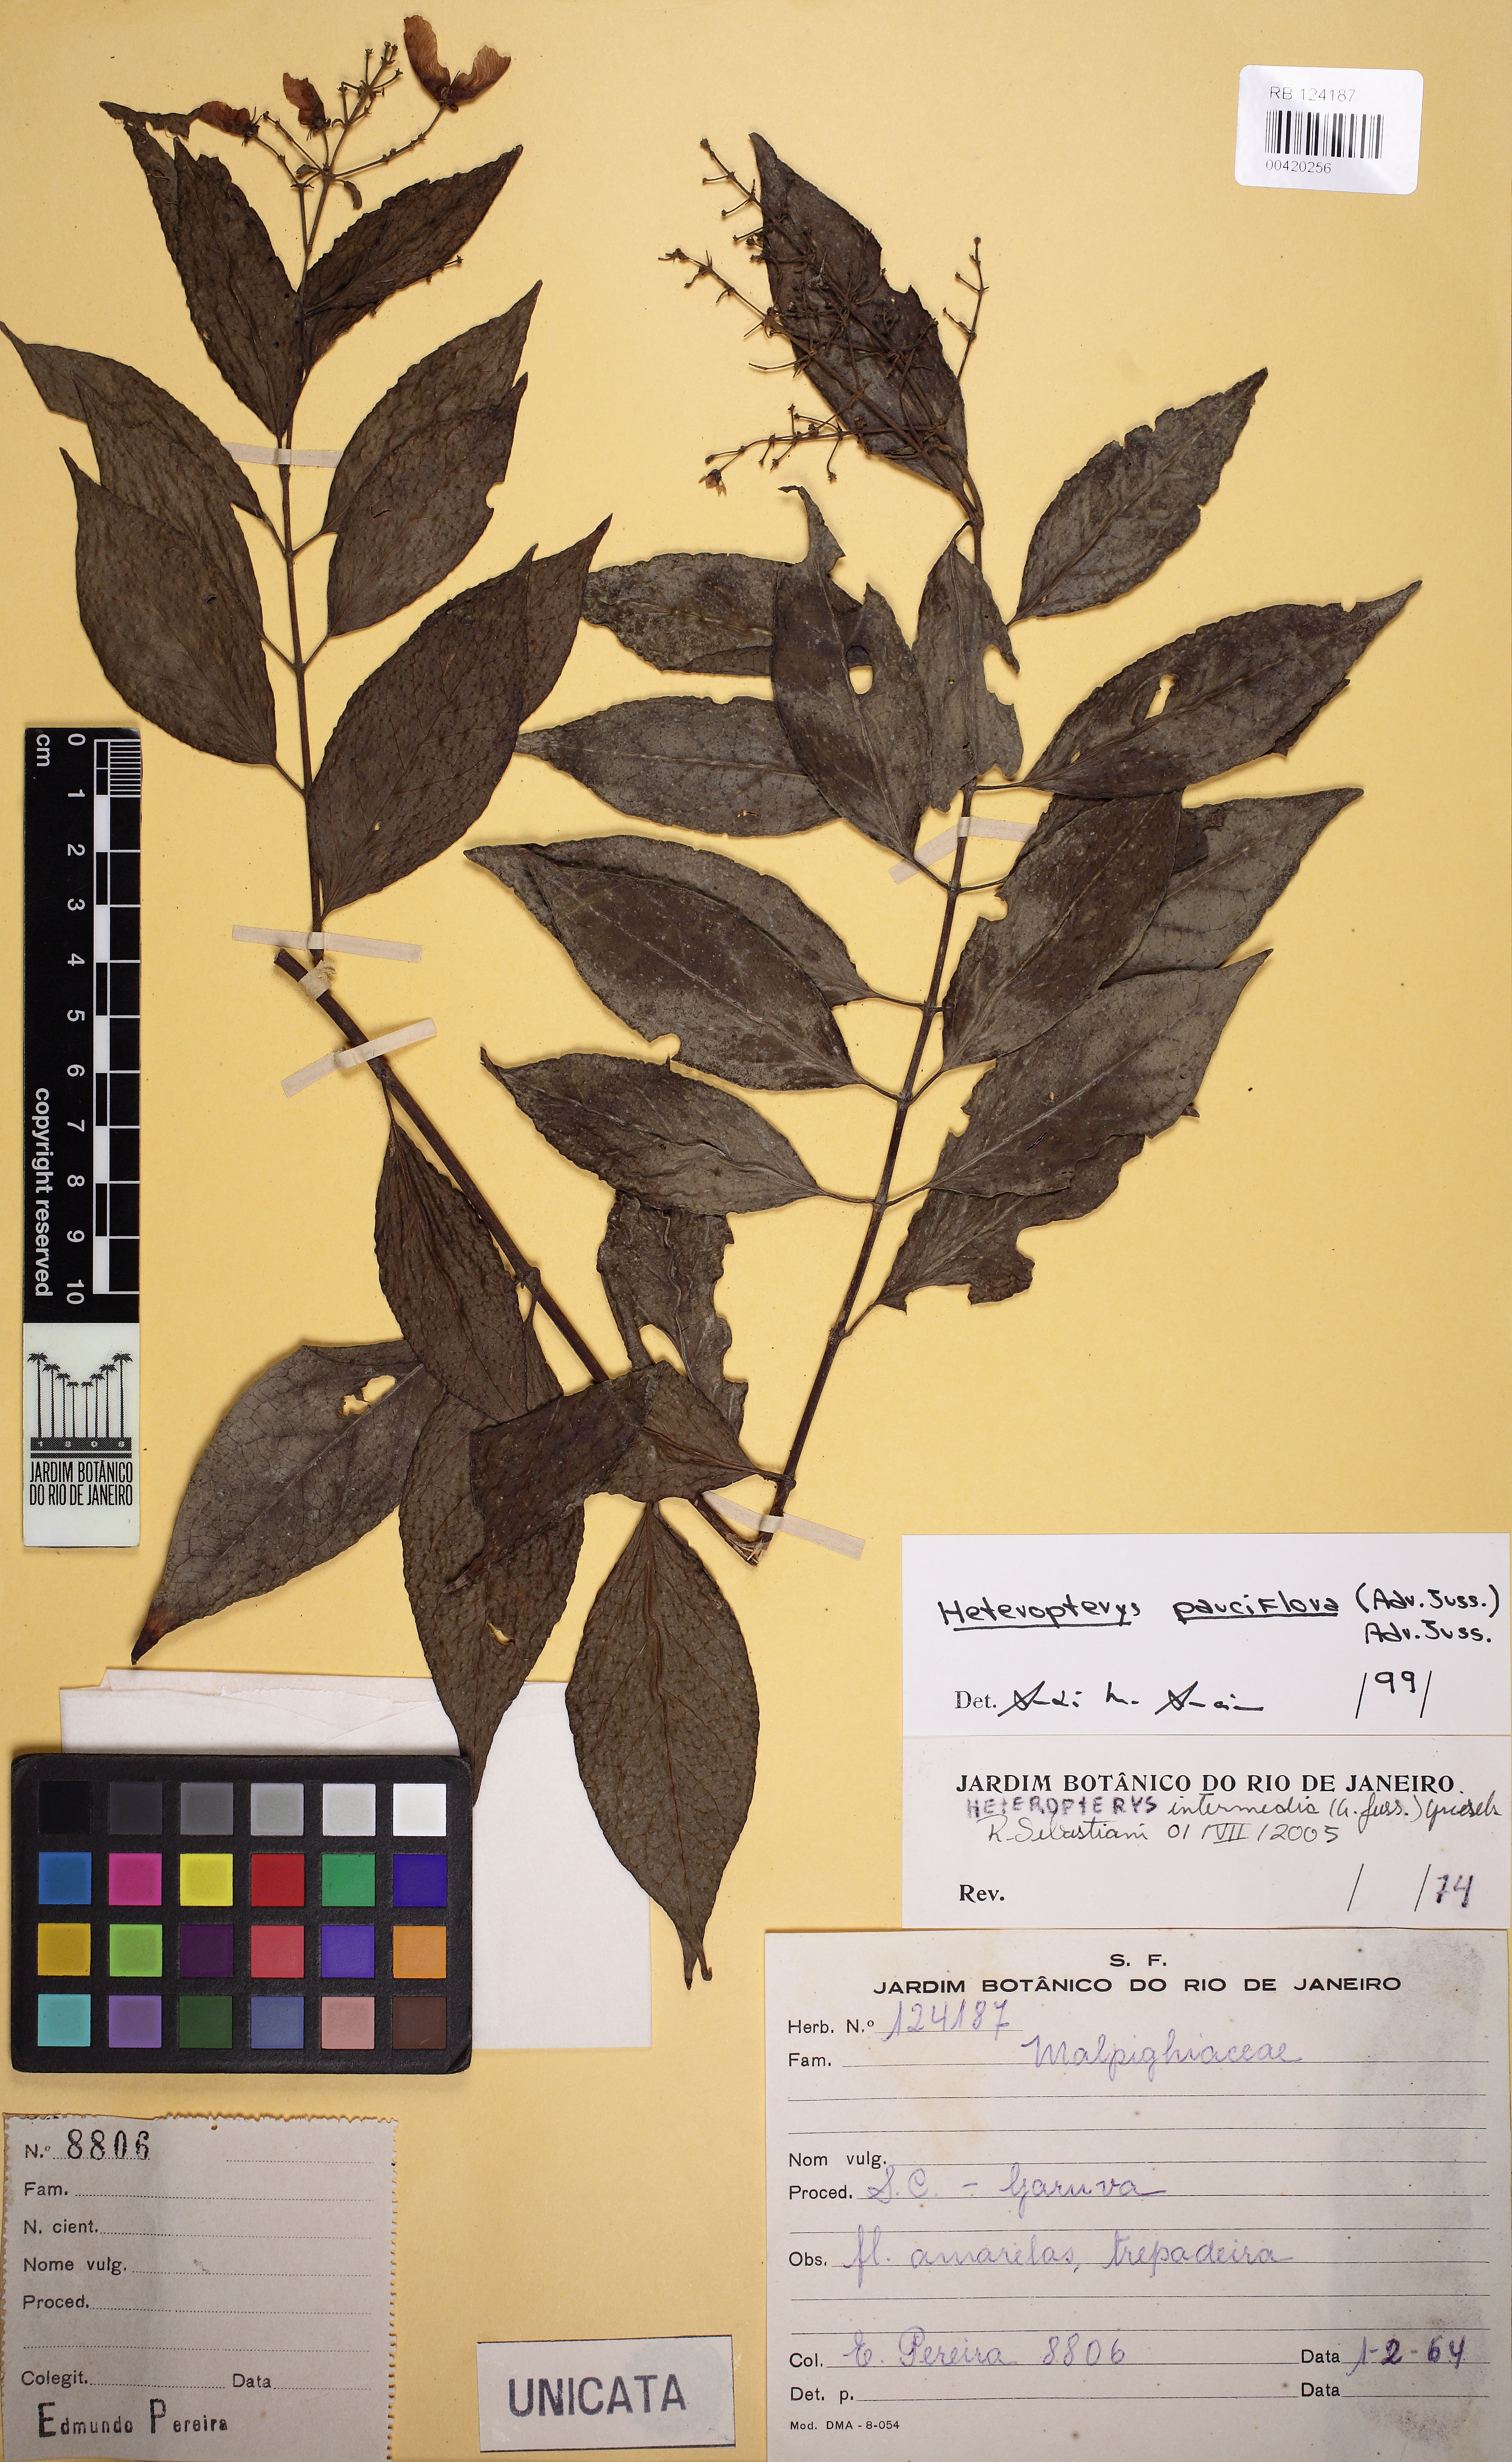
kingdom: Plantae
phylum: Tracheophyta
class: Magnoliopsida
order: Malpighiales
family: Malpighiaceae
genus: Heteropterys
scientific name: Heteropterys pauciflora
